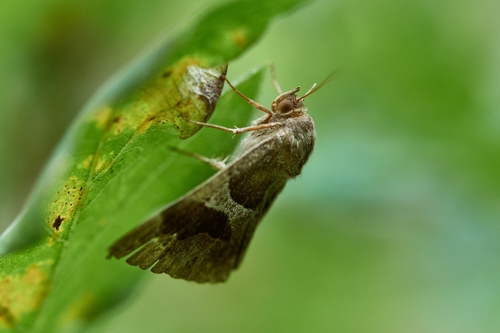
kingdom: Animalia
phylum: Arthropoda
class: Insecta
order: Lepidoptera
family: Erebidae
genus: Dysgonia
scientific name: Dysgonia algira
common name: Passenger
